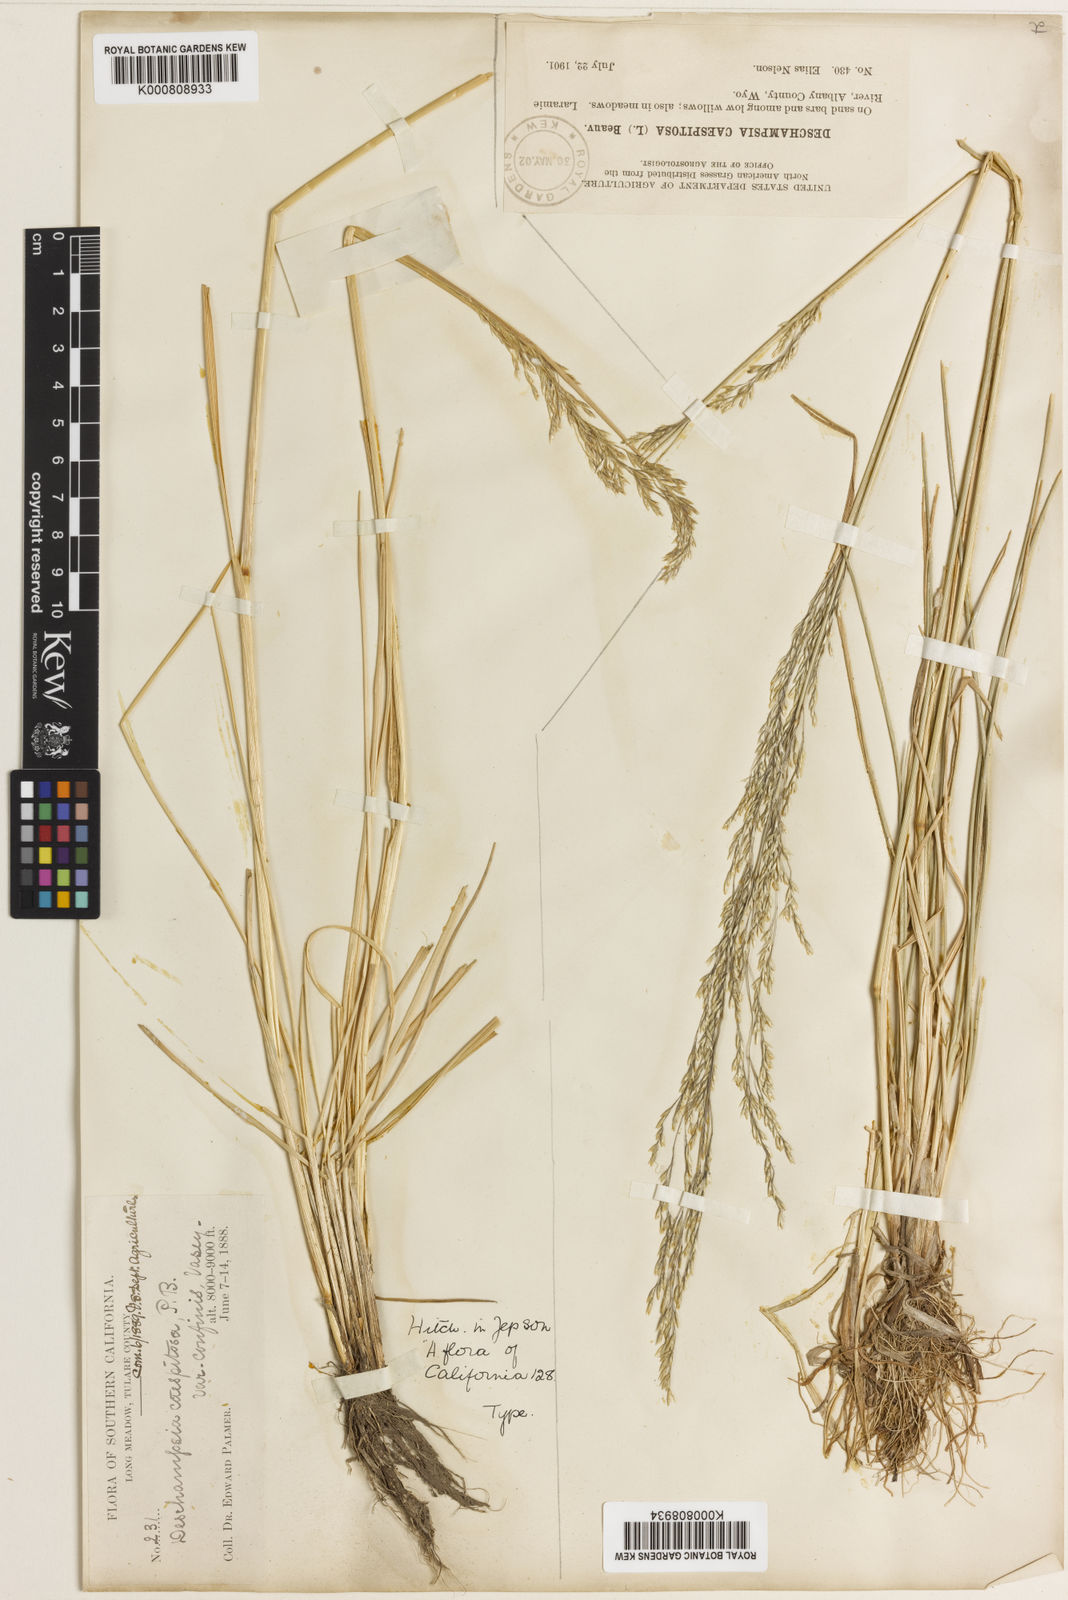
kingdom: Plantae
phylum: Tracheophyta
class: Liliopsida
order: Poales
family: Poaceae
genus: Deschampsia
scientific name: Deschampsia
